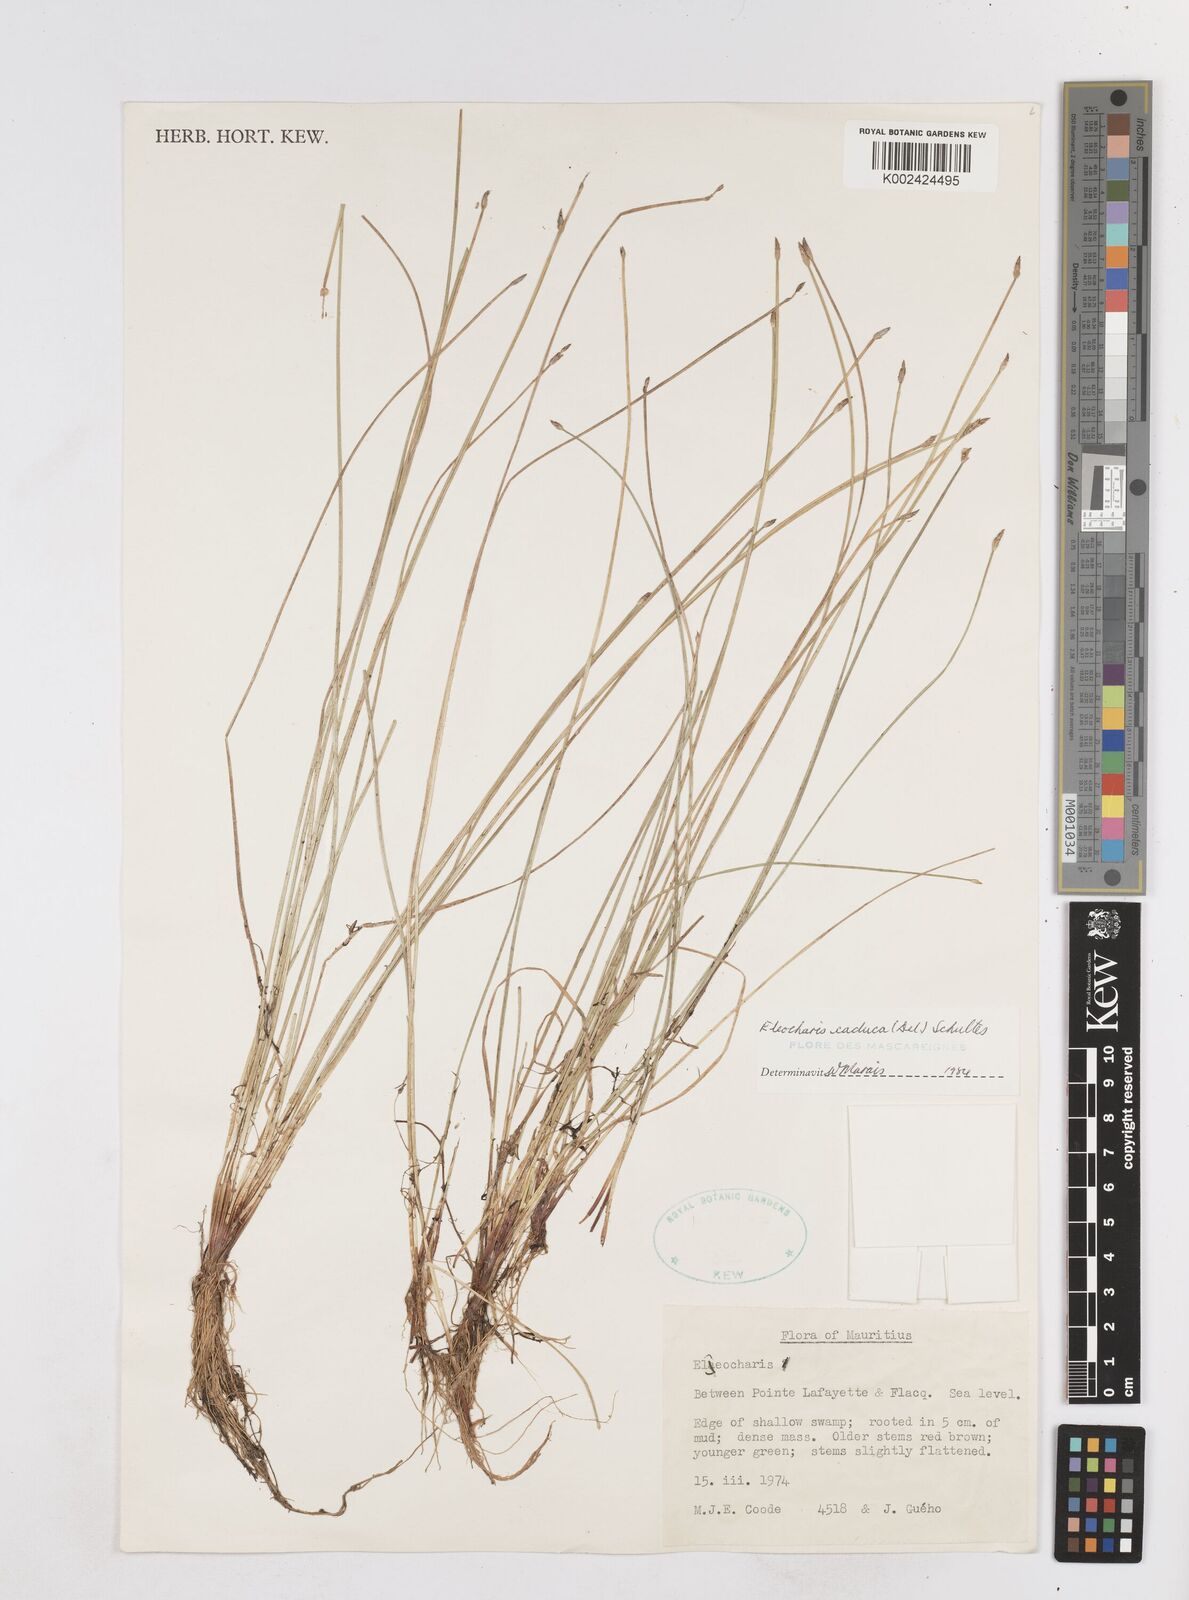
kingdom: Plantae
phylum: Tracheophyta
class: Liliopsida
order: Poales
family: Cyperaceae
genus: Eleocharis
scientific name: Eleocharis geniculata
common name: Canada spikesedge
